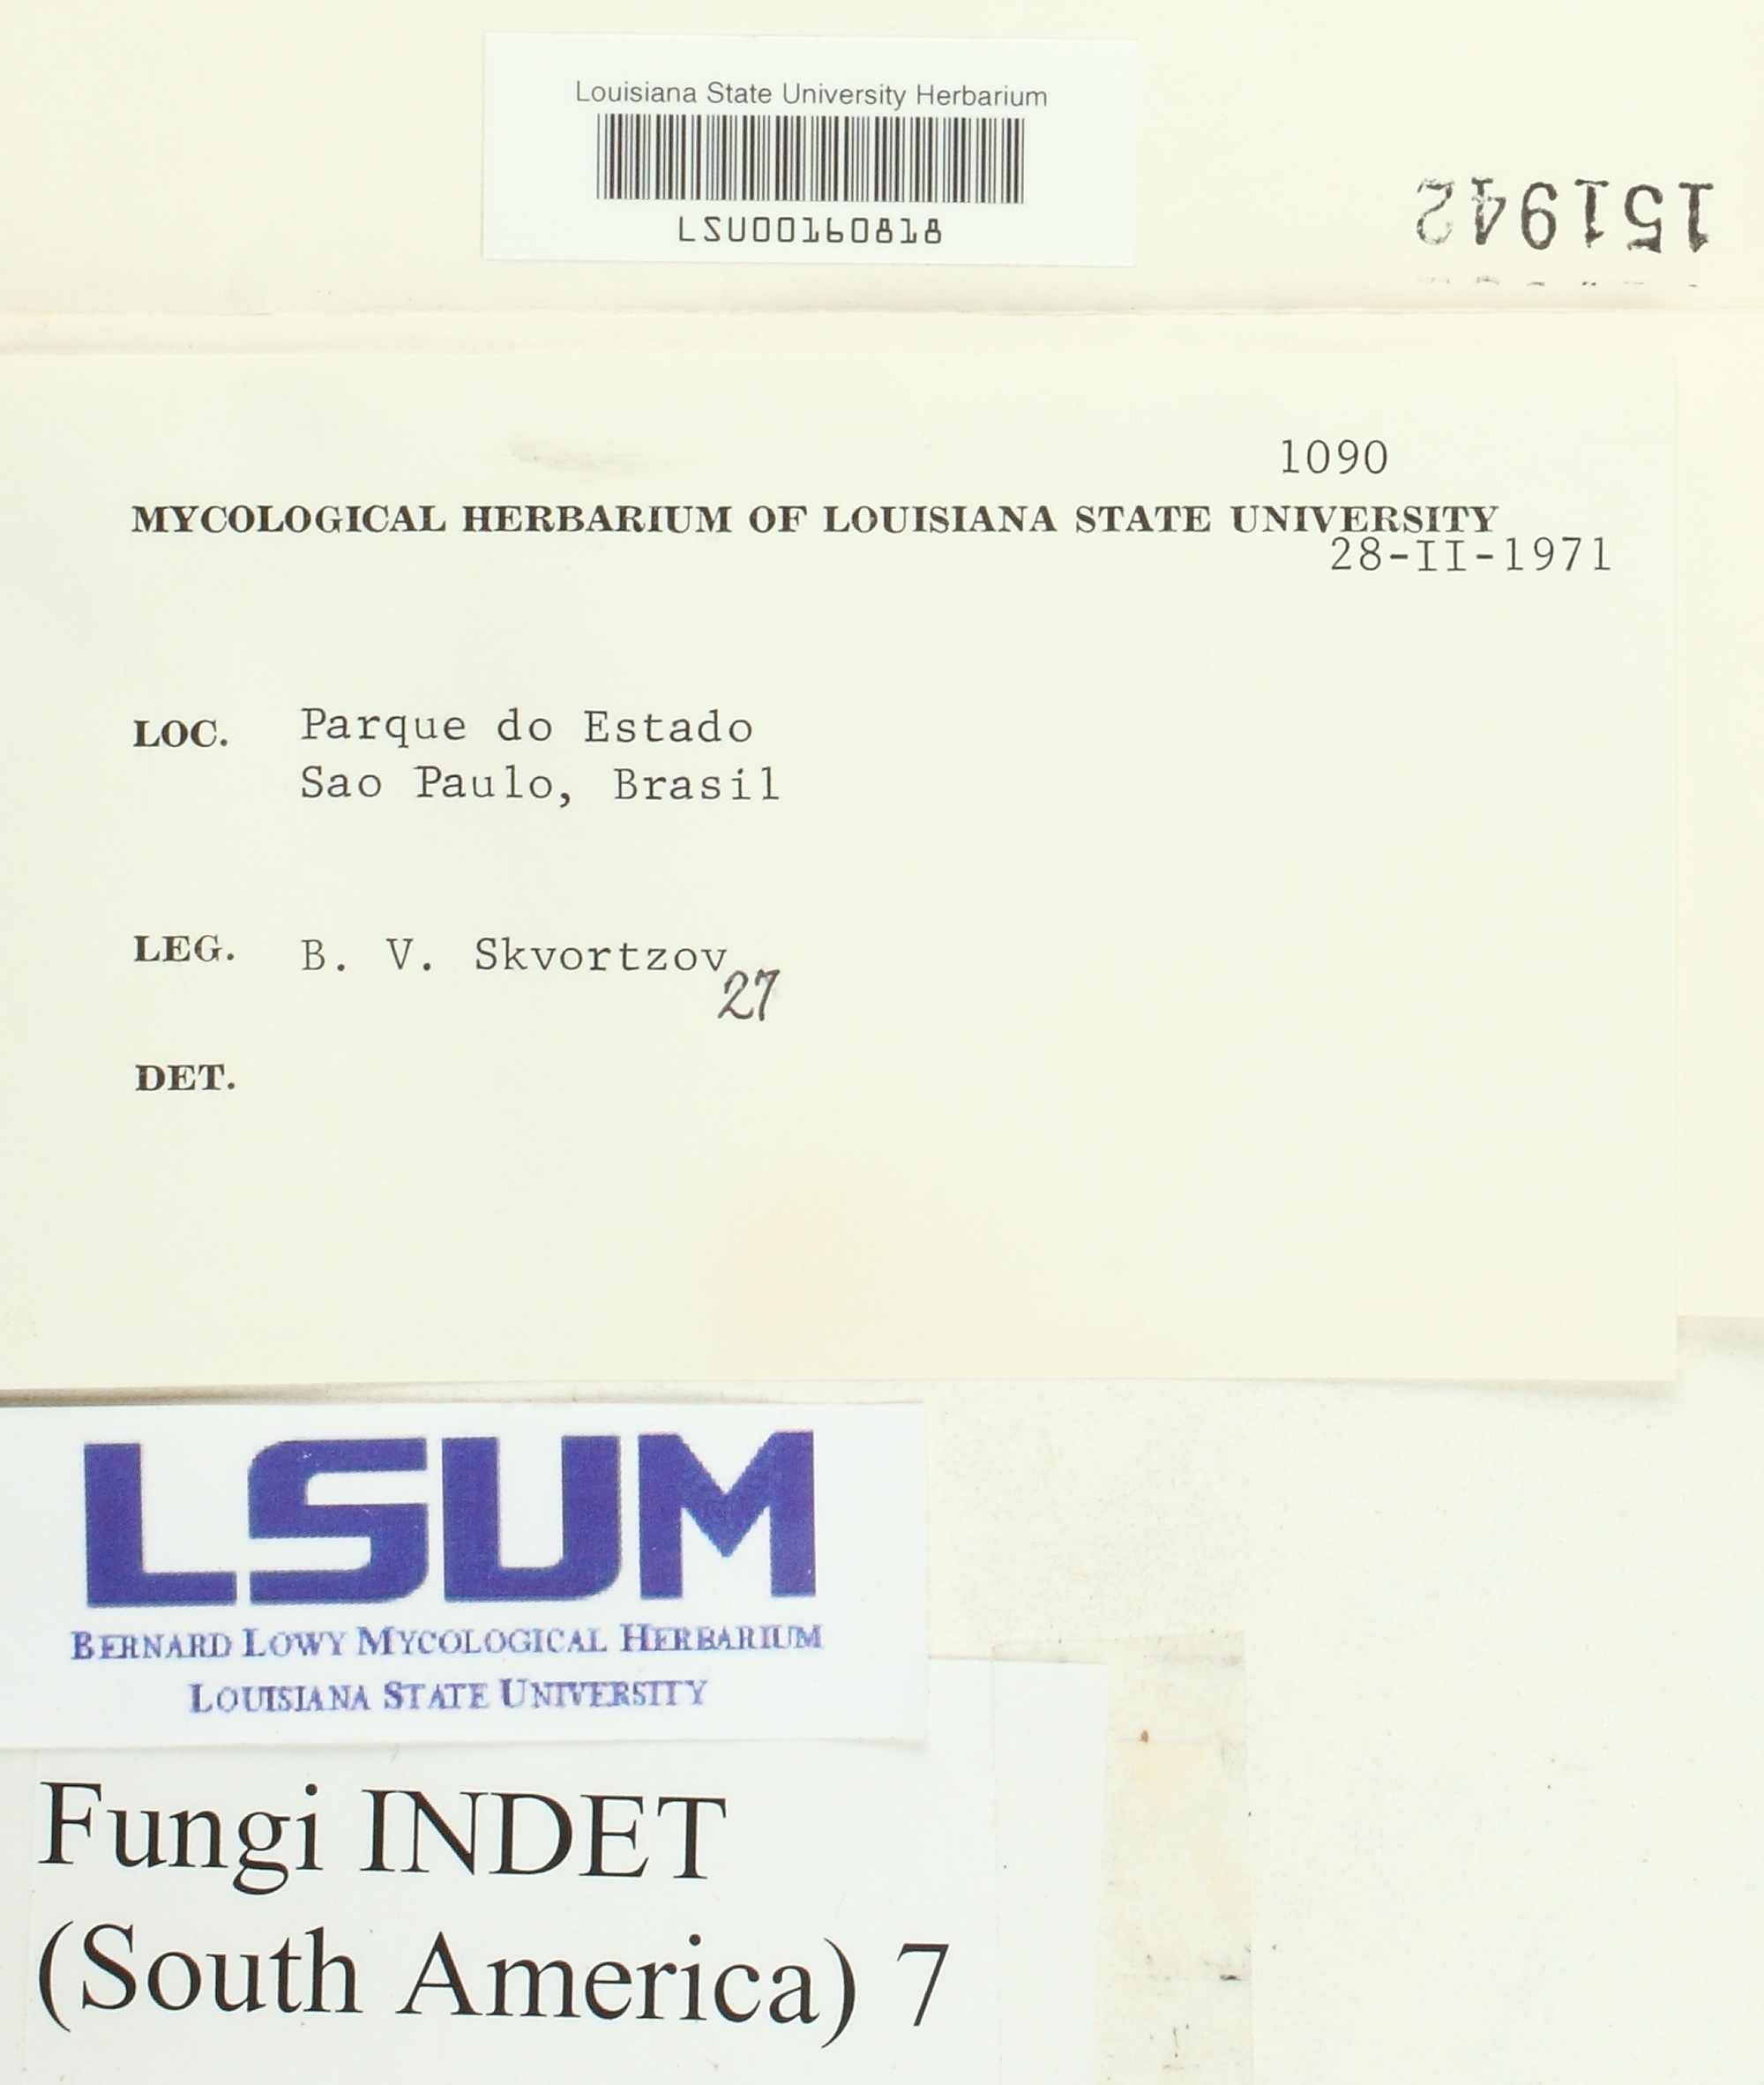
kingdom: Fungi
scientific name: Fungi
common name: Fungi
